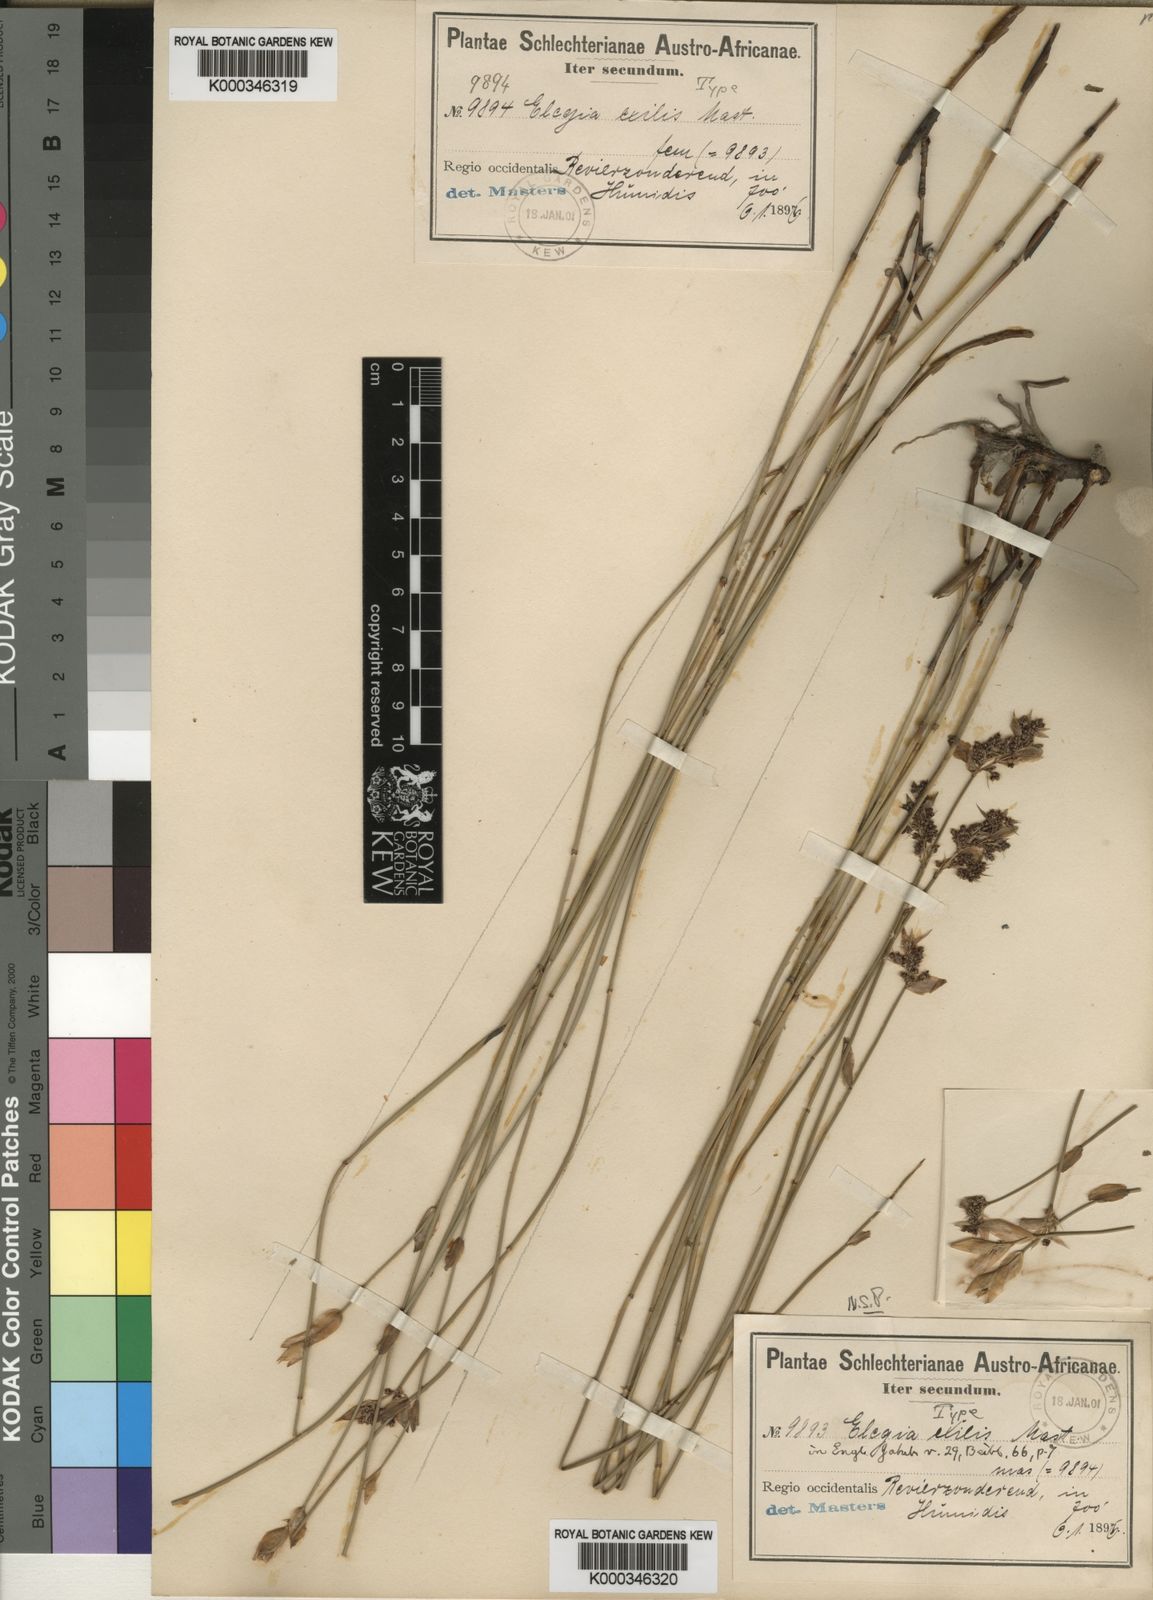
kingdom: Plantae
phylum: Tracheophyta
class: Liliopsida
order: Poales
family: Restionaceae
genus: Elegia
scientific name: Elegia coleura
